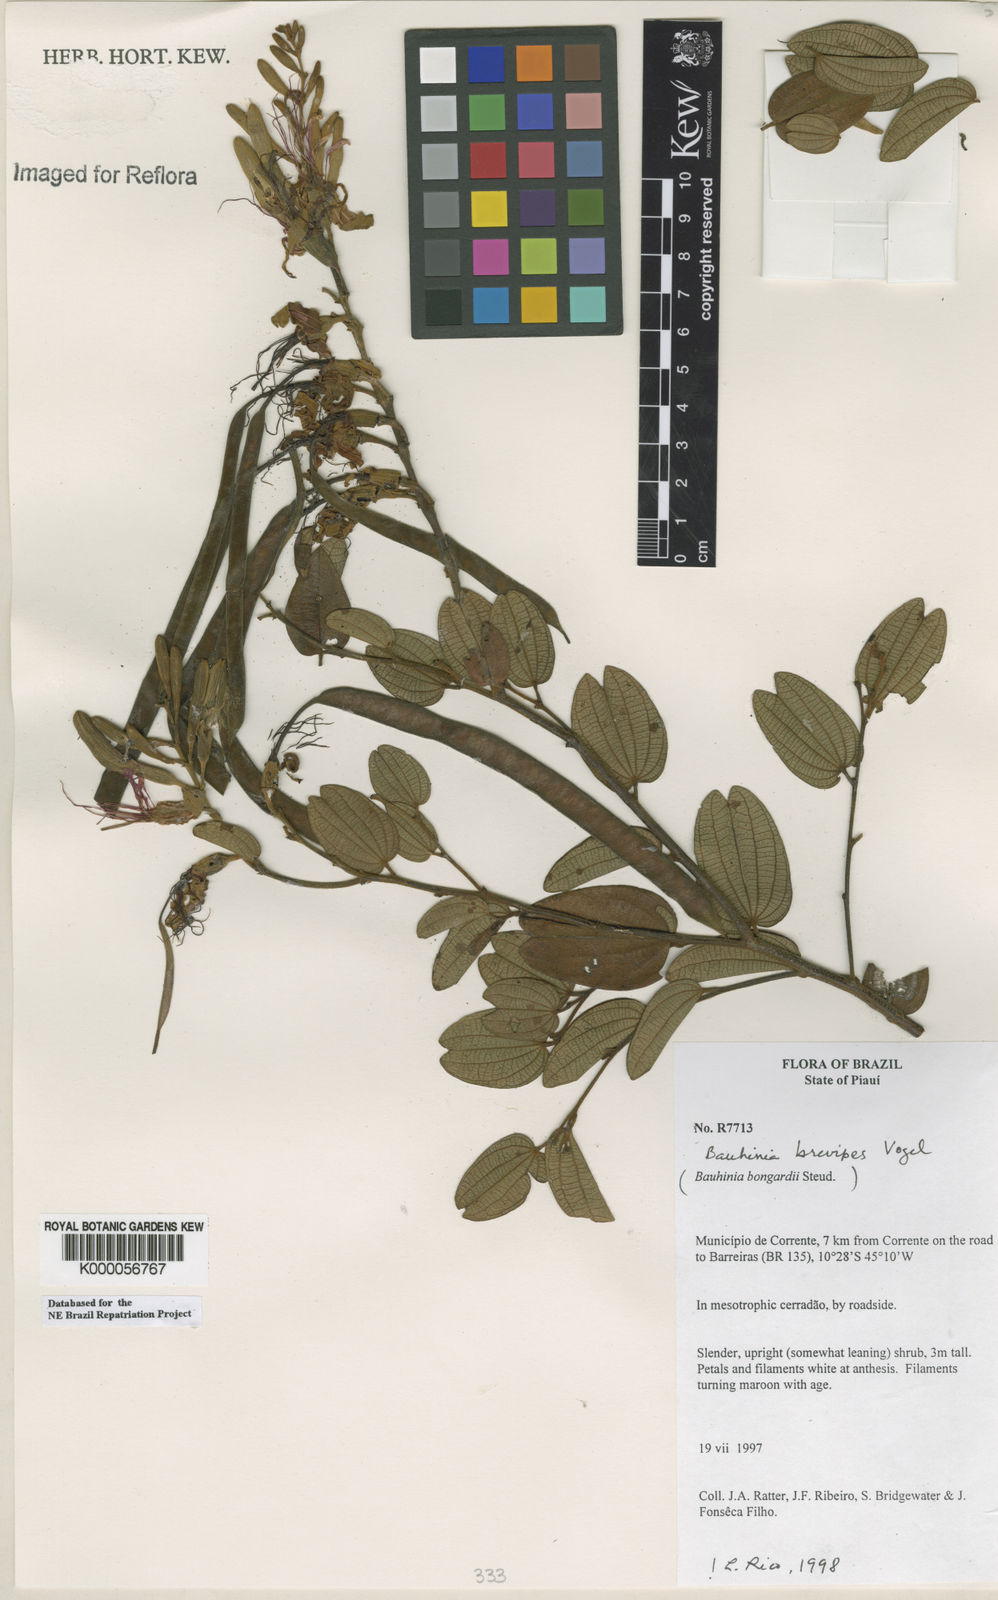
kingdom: Plantae
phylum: Tracheophyta
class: Magnoliopsida
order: Fabales
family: Fabaceae
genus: Bauhinia
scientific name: Bauhinia brevipes
